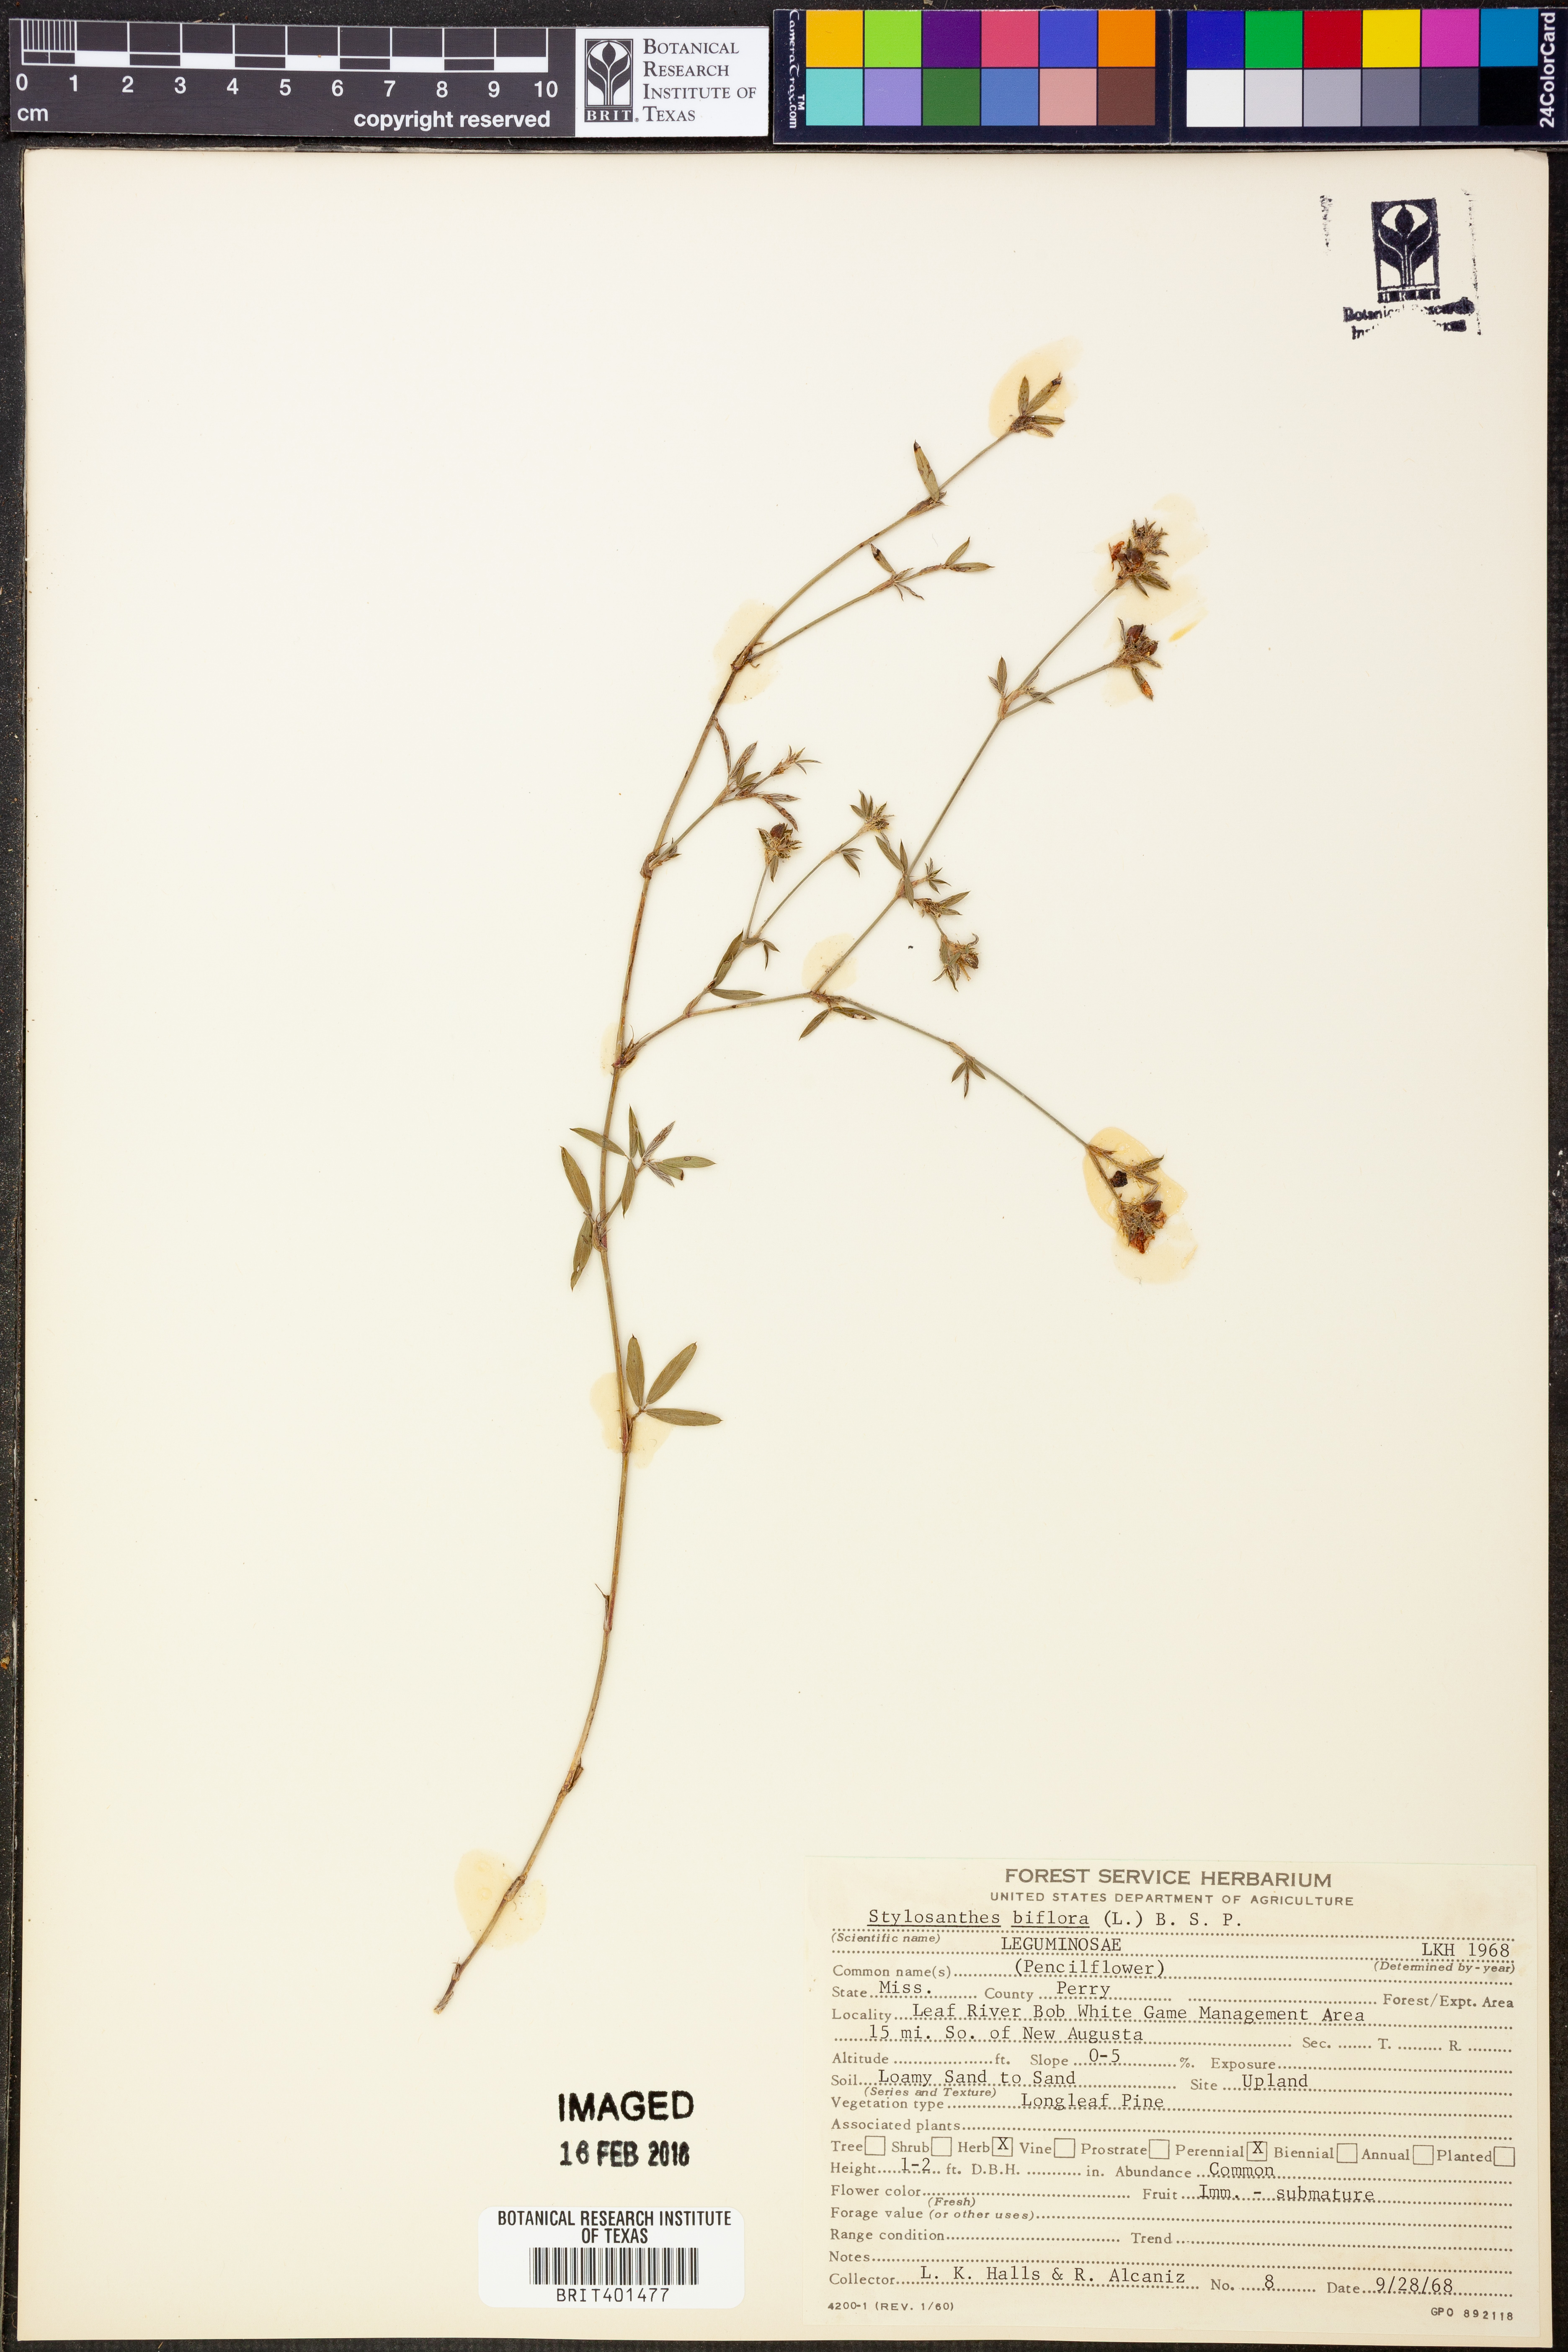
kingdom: Plantae
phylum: Tracheophyta
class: Magnoliopsida
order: Fabales
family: Fabaceae
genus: Stylosanthes
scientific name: Stylosanthes biflora
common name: Two-flower pencil-flower
